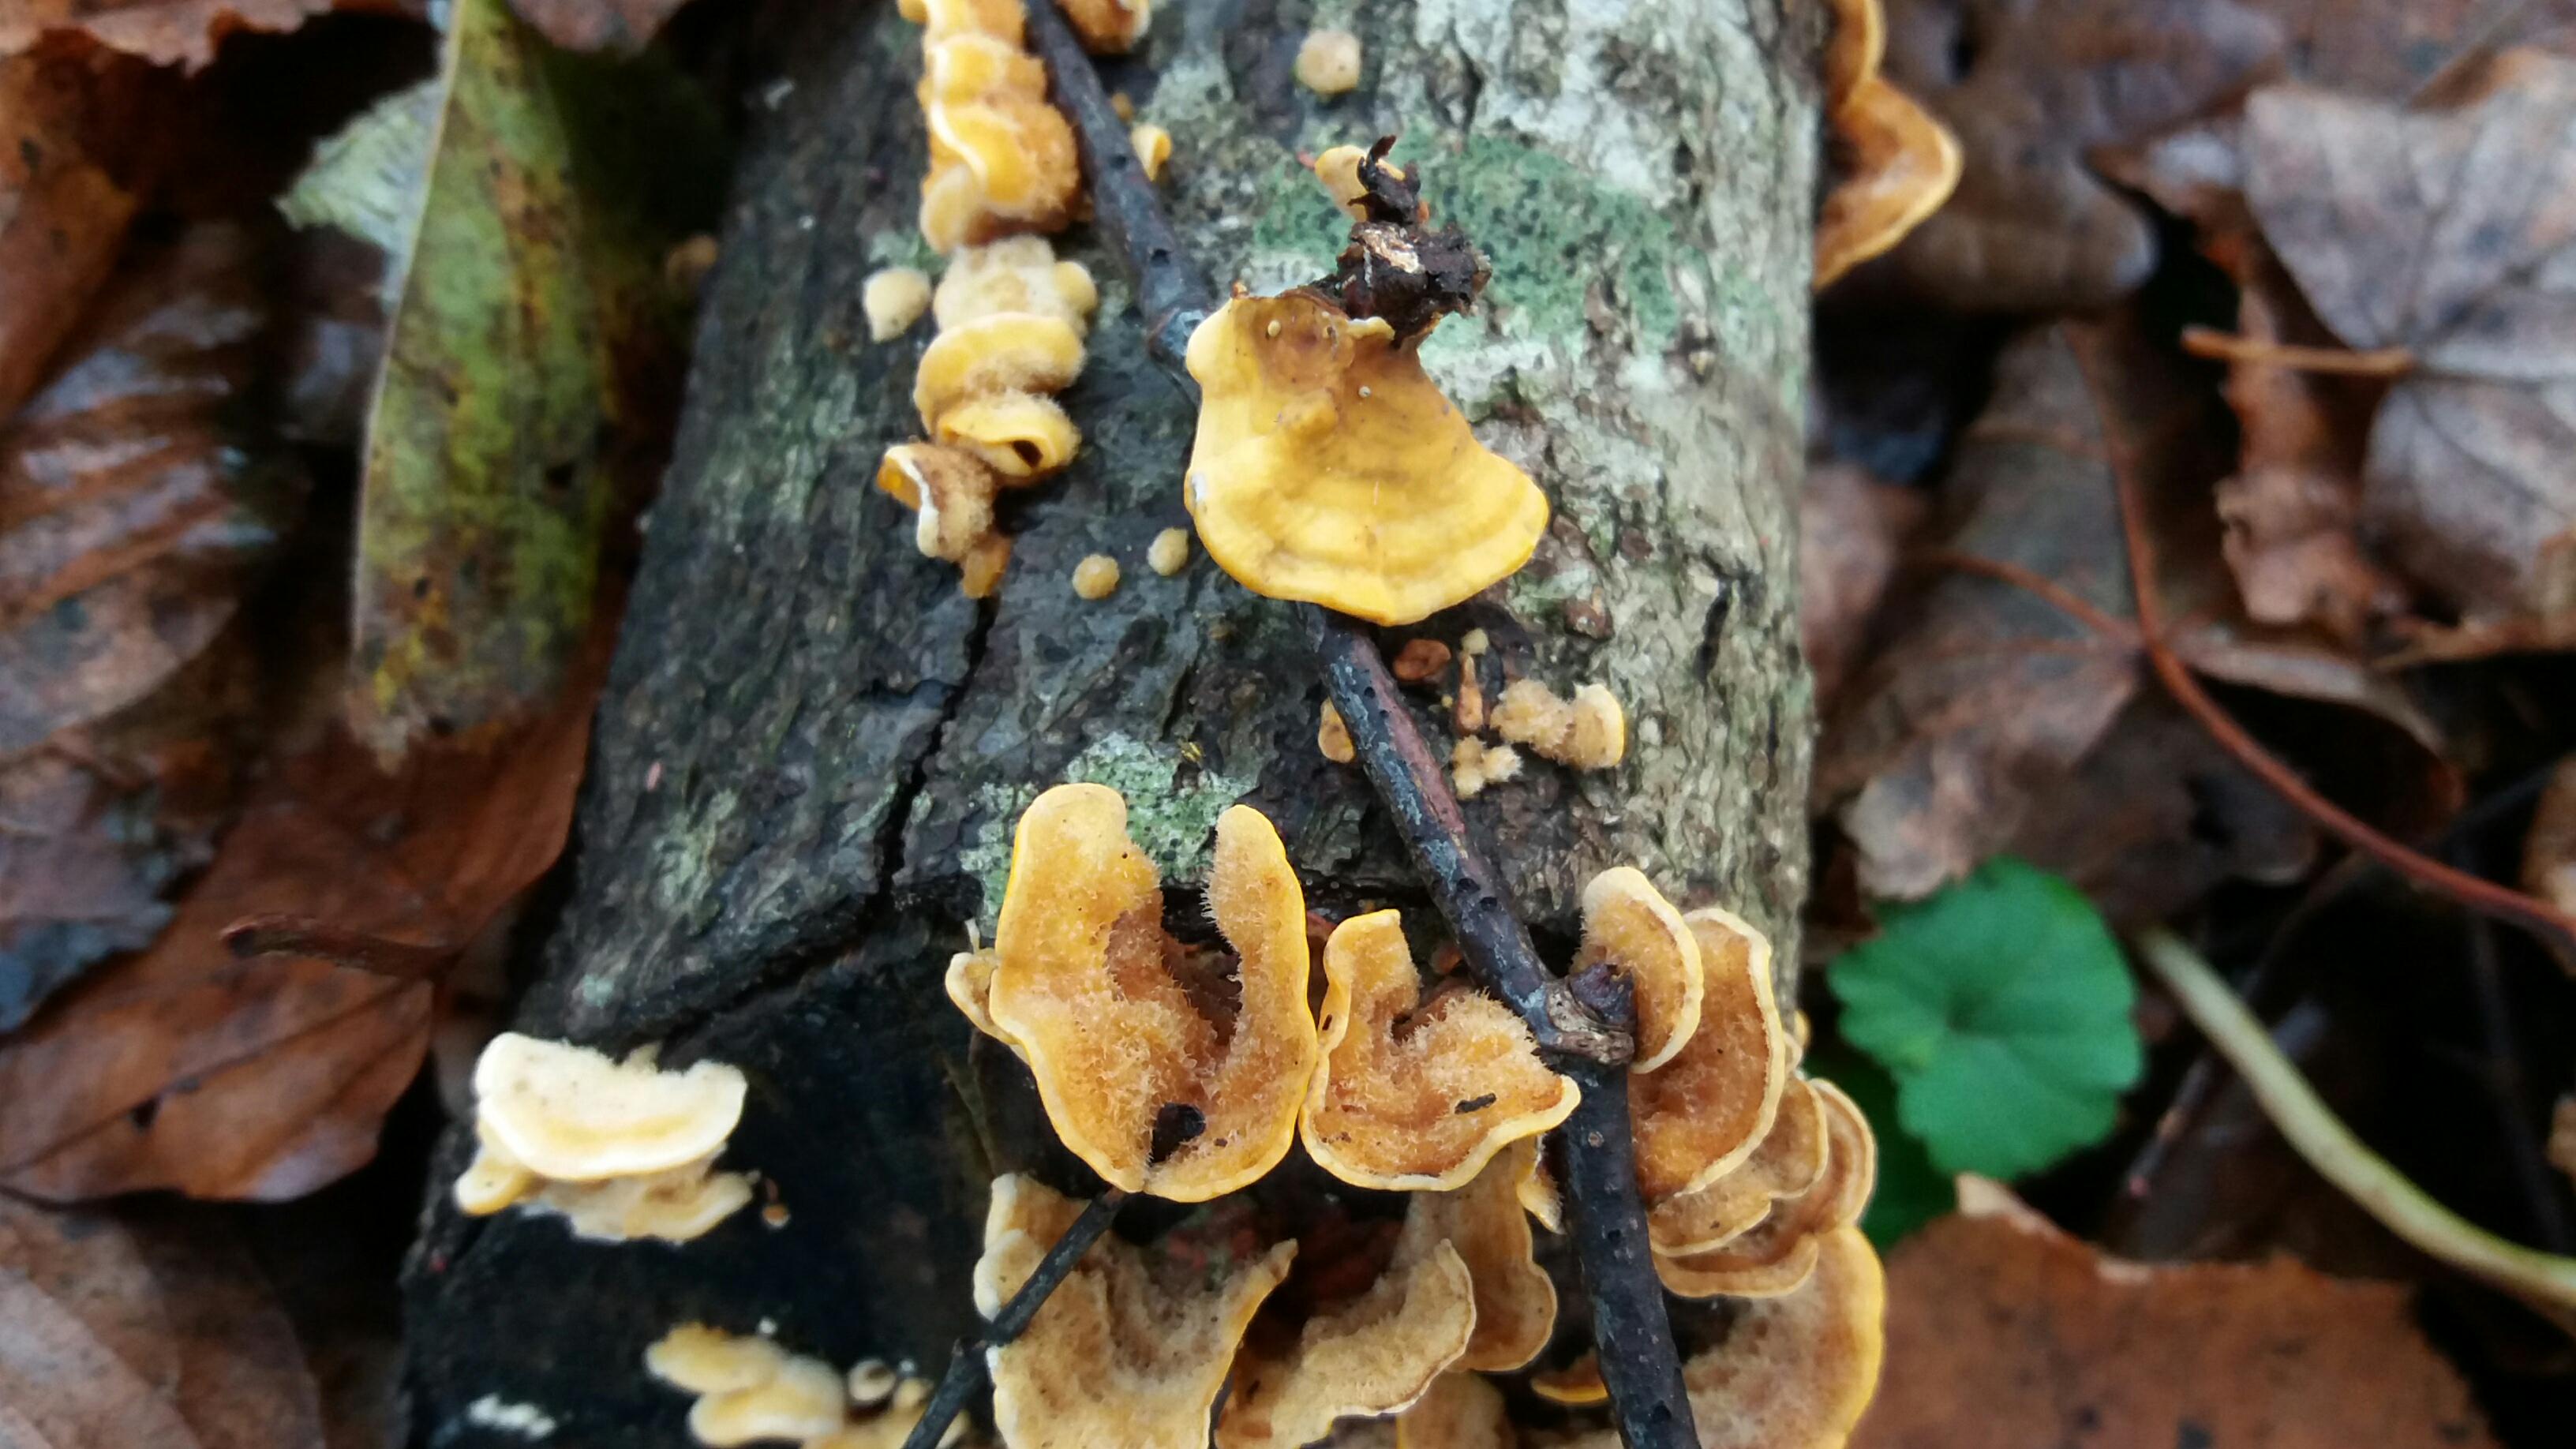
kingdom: Fungi
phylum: Basidiomycota
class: Agaricomycetes
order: Russulales
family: Stereaceae
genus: Stereum
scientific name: Stereum hirsutum
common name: håret lædersvamp
